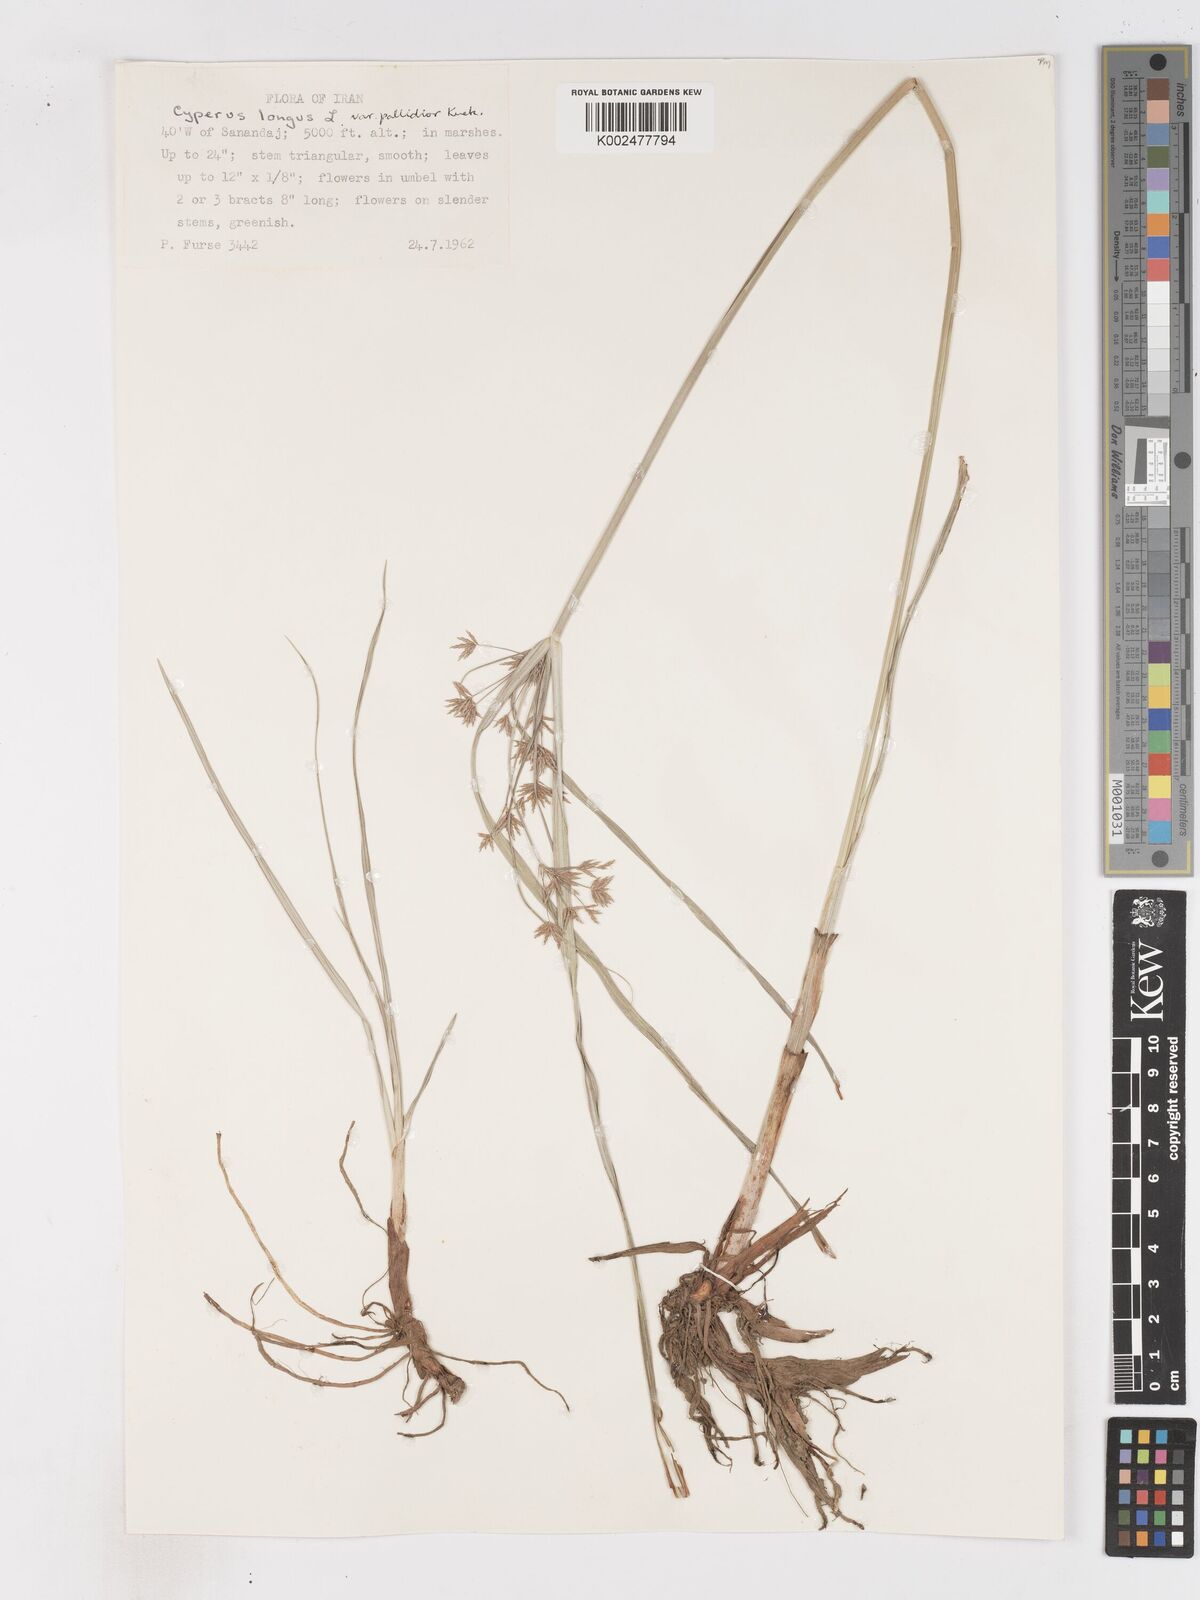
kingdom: Plantae
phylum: Tracheophyta
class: Liliopsida
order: Poales
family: Cyperaceae
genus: Cyperus
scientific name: Cyperus longus
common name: Galingale
